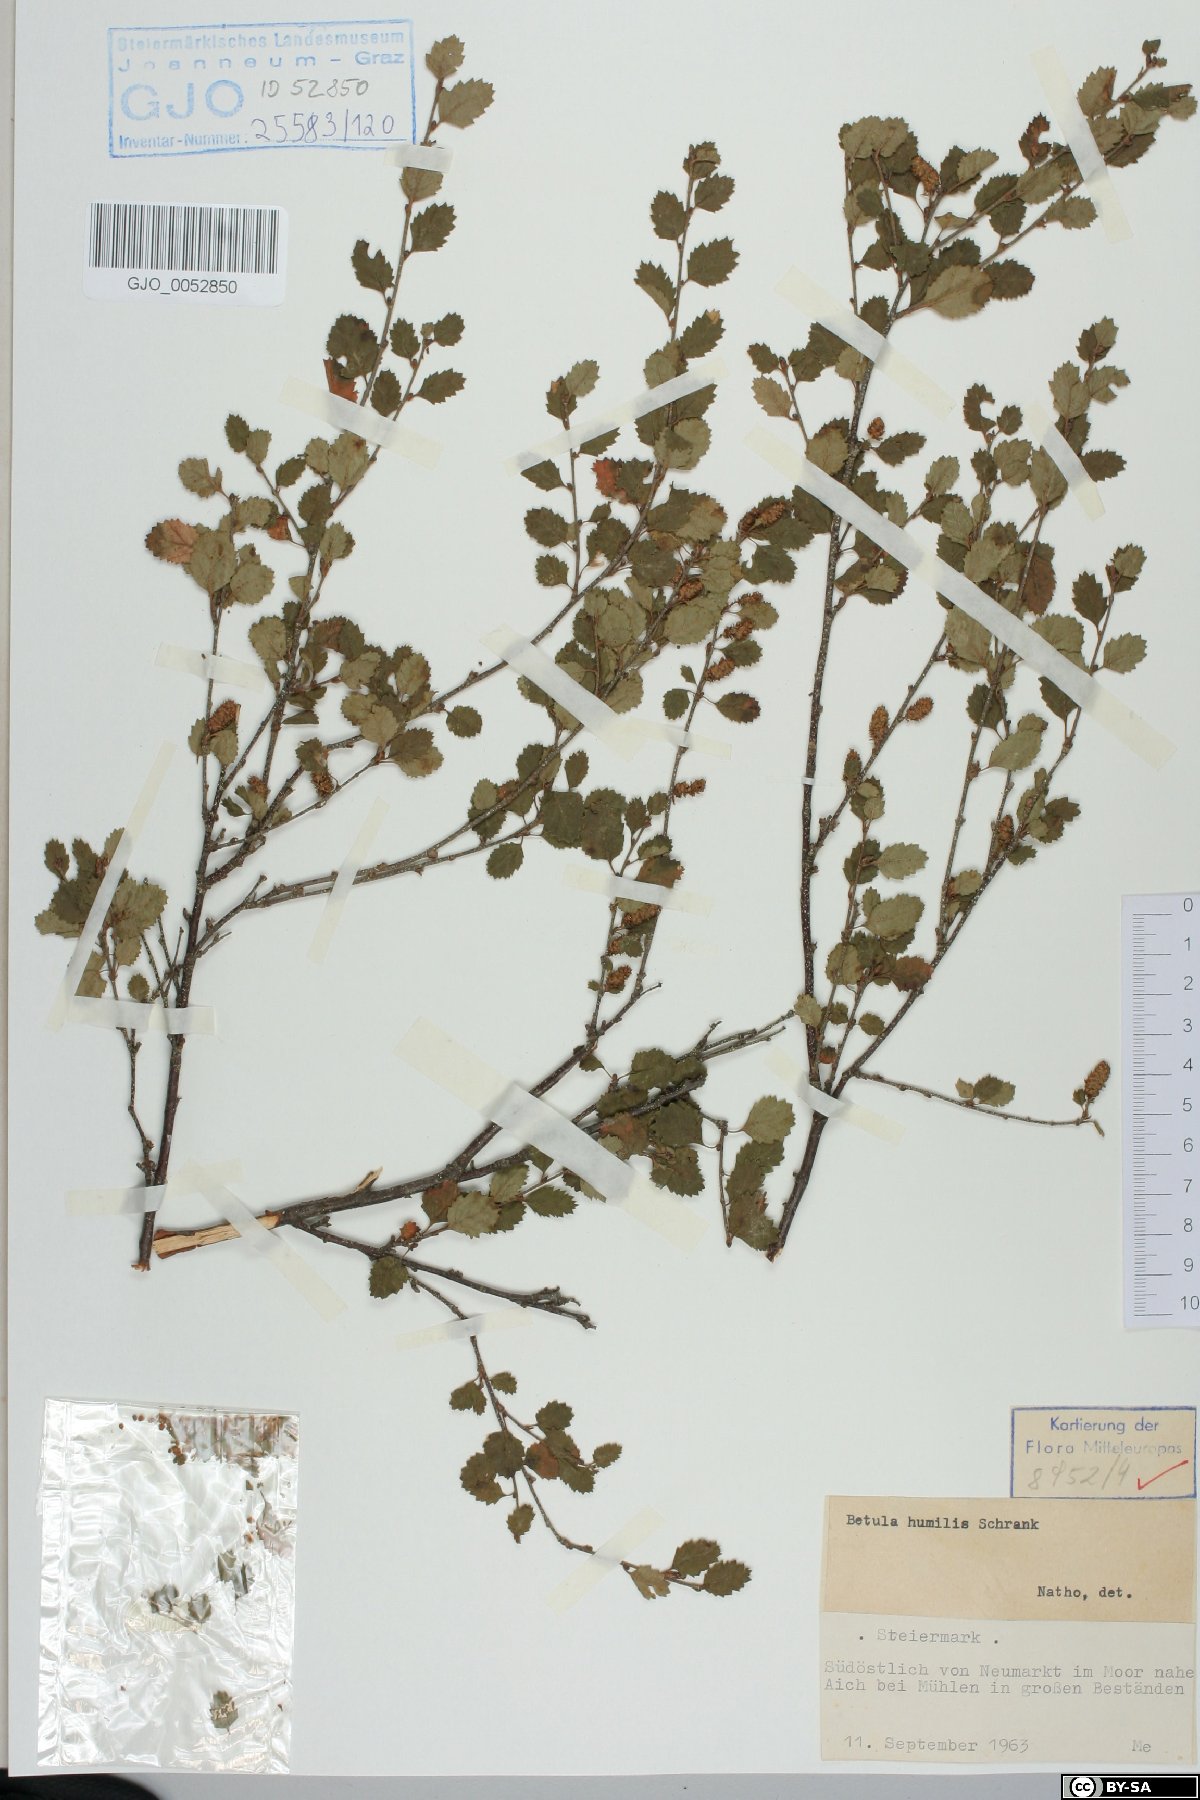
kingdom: Plantae
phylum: Tracheophyta
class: Magnoliopsida
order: Fagales
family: Betulaceae
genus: Betula
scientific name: Betula humilis
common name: Shrubby birch
